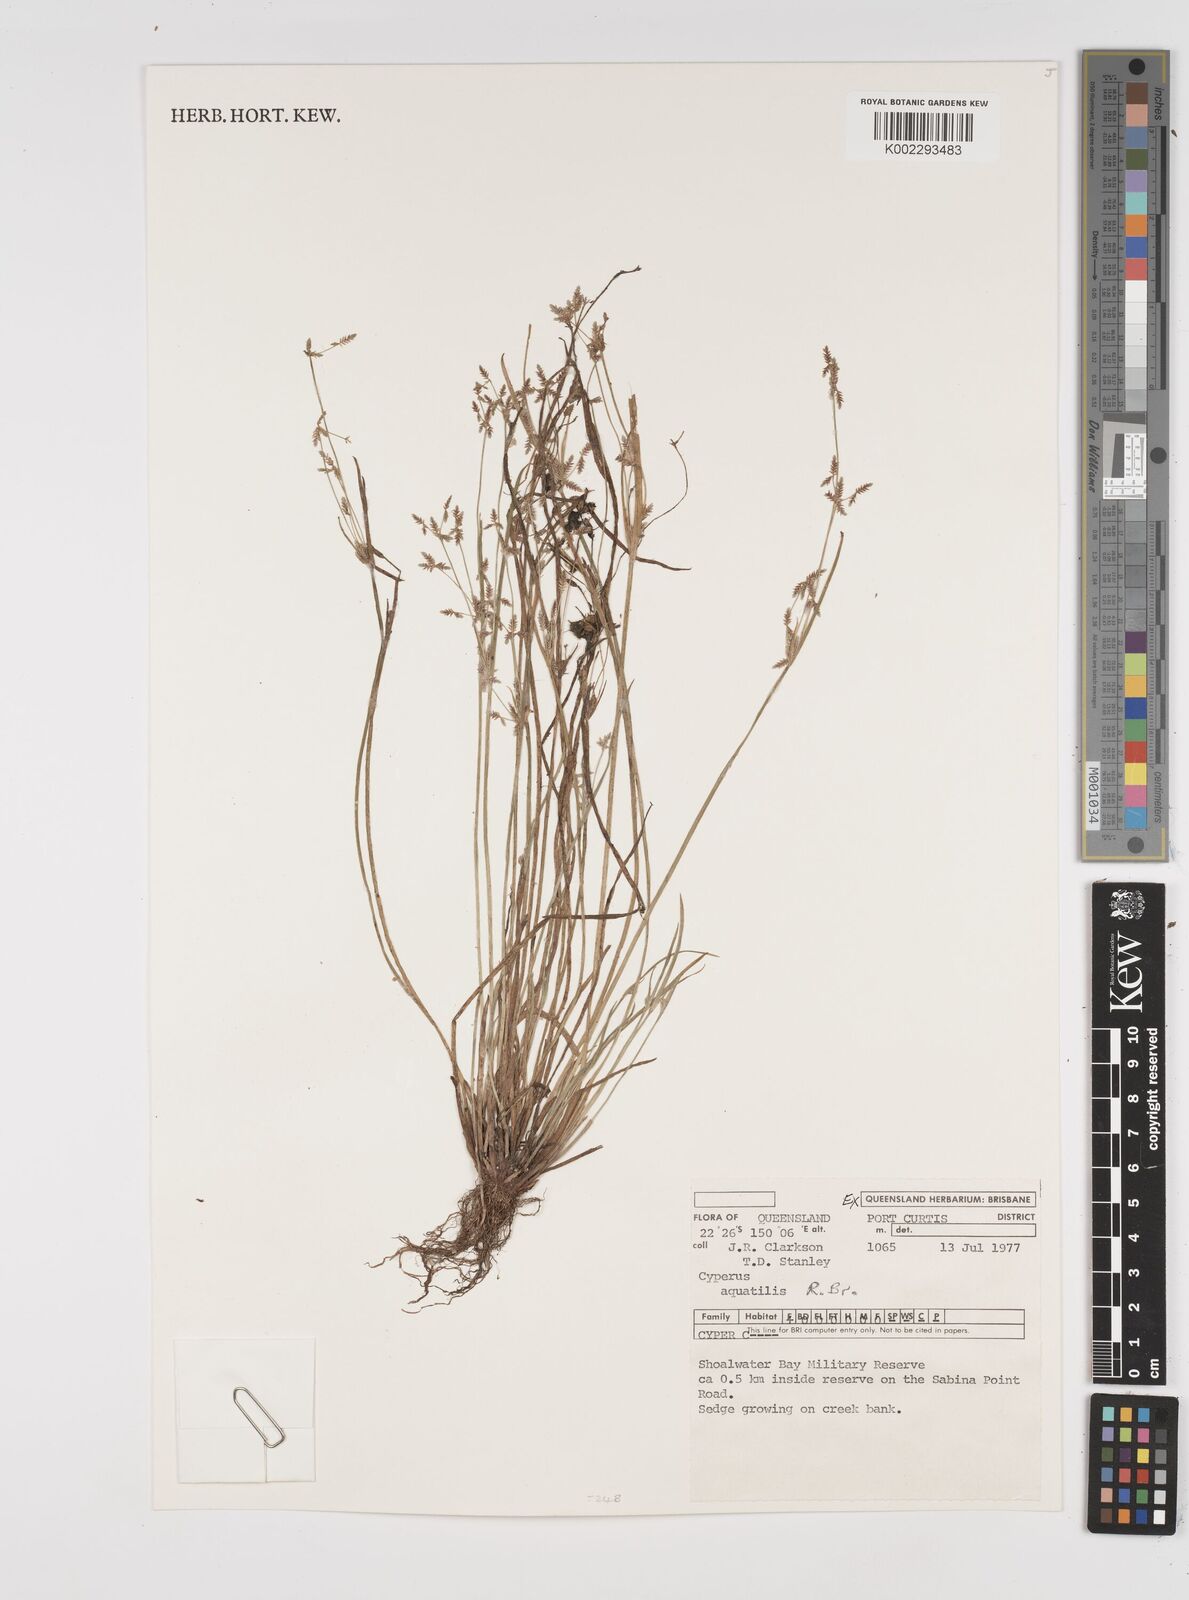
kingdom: Plantae
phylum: Tracheophyta
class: Liliopsida
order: Poales
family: Cyperaceae
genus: Cyperus
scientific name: Cyperus trinervis
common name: Australian flatsedge
